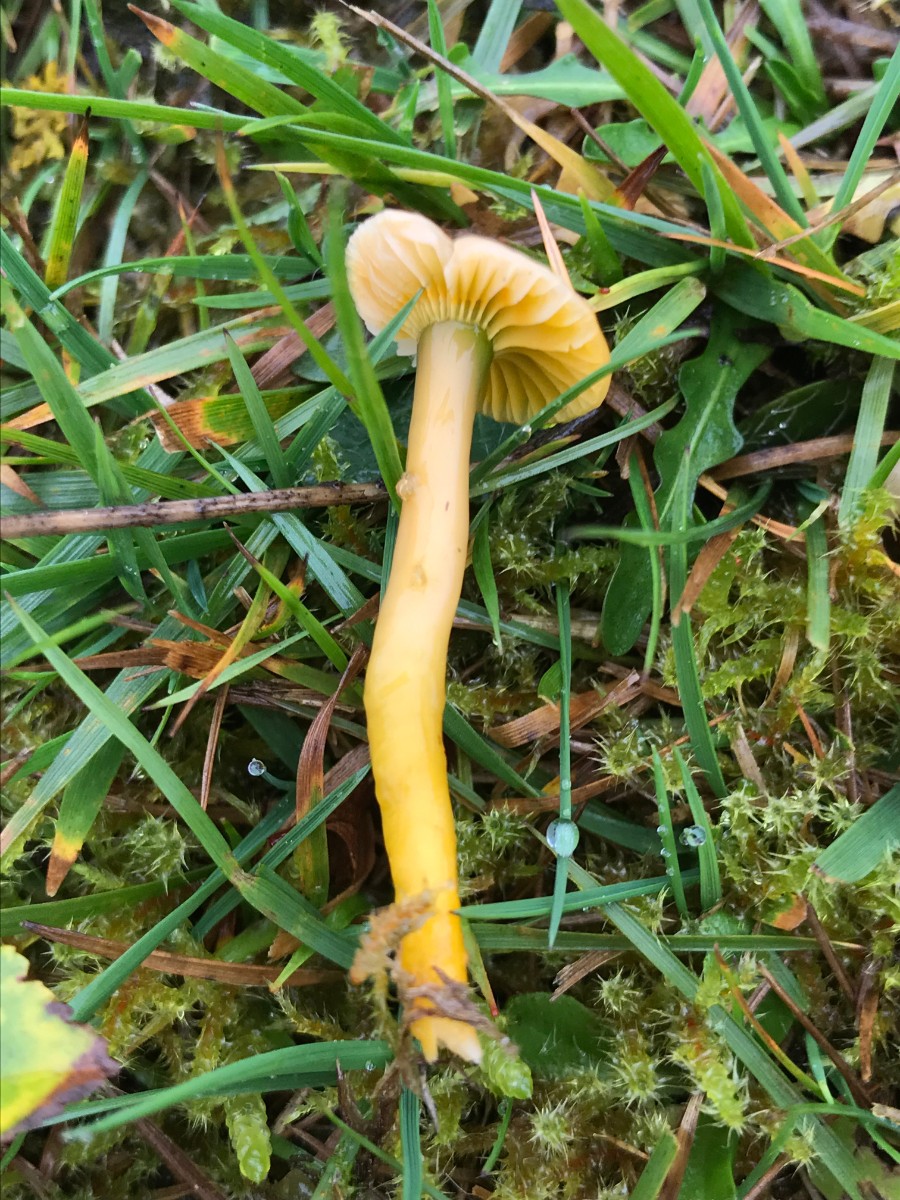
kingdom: Fungi
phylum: Basidiomycota
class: Agaricomycetes
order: Agaricales
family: Hygrophoraceae
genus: Gliophorus
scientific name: Gliophorus psittacinus
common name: papegøje-vokshat
